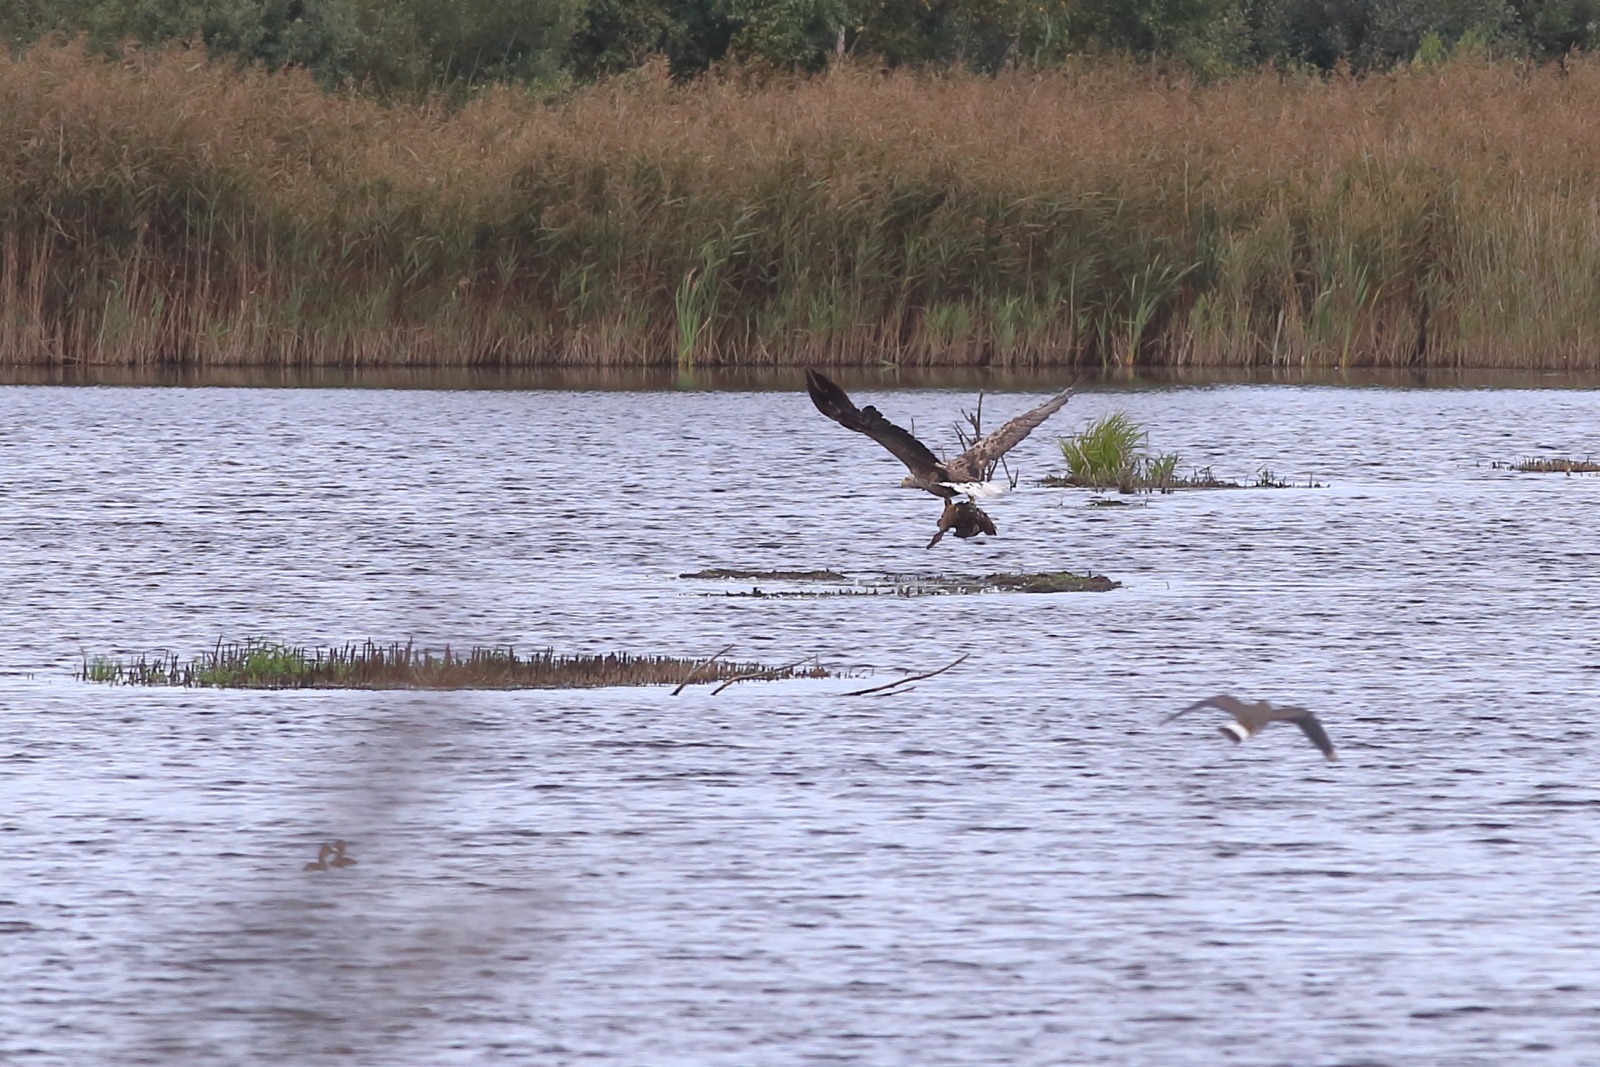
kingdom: Animalia
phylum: Chordata
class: Aves
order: Accipitriformes
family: Accipitridae
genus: Haliaeetus
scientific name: Haliaeetus albicilla
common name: Havørn
